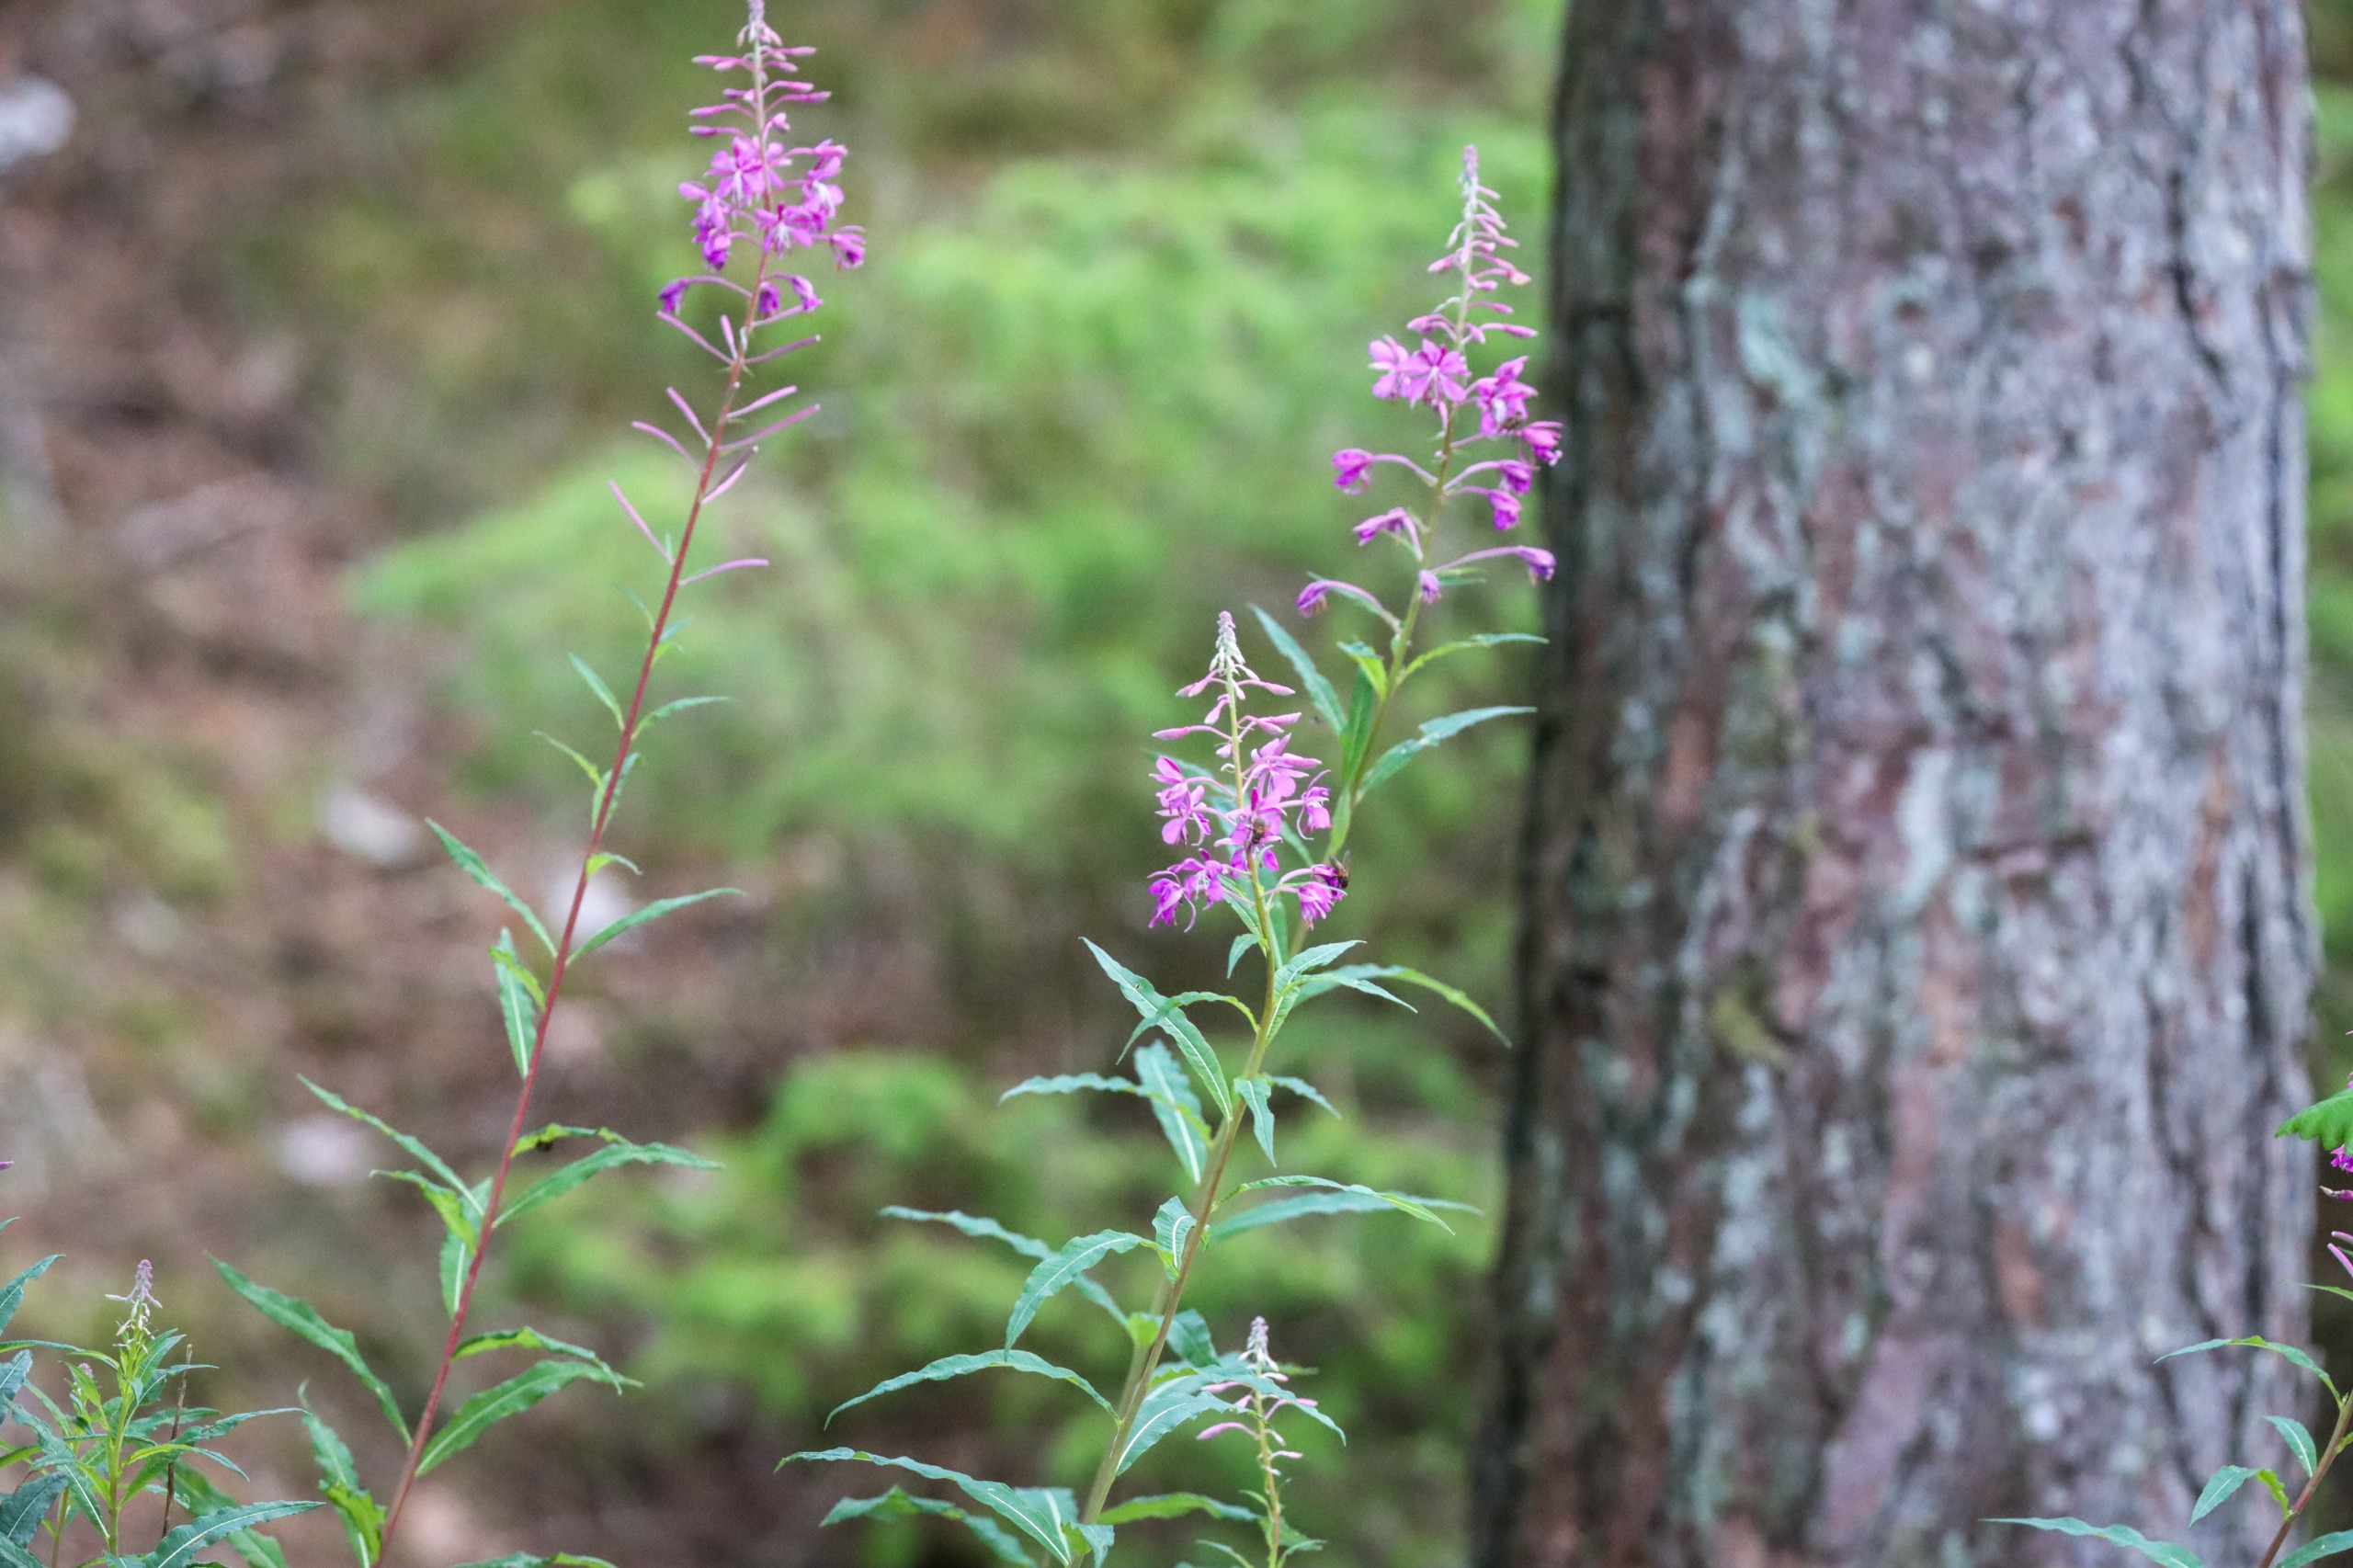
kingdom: Plantae
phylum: Tracheophyta
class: Magnoliopsida
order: Myrtales
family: Onagraceae
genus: Chamaenerion
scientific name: Chamaenerion angustifolium
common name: Gederams
